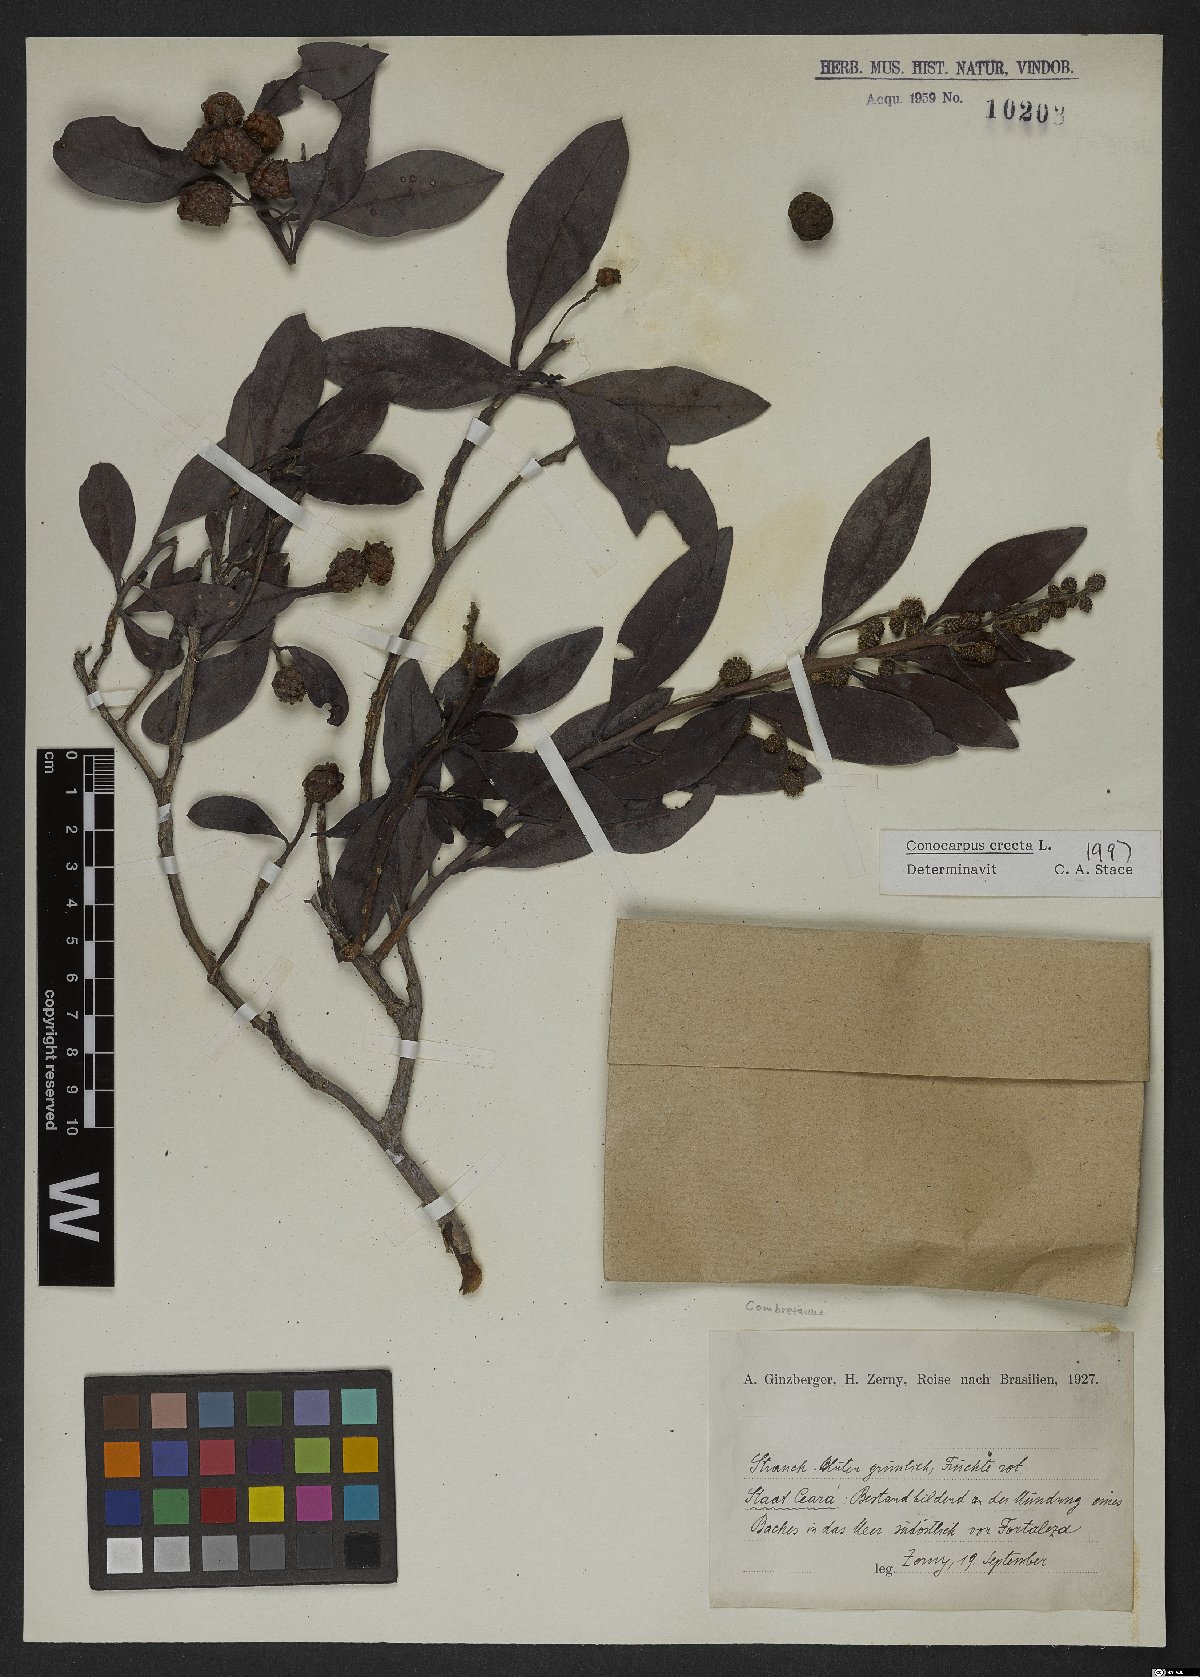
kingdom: Plantae
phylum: Tracheophyta
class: Magnoliopsida
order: Myrtales
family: Combretaceae
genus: Conocarpus
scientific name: Conocarpus erectus
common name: Button mangrove
